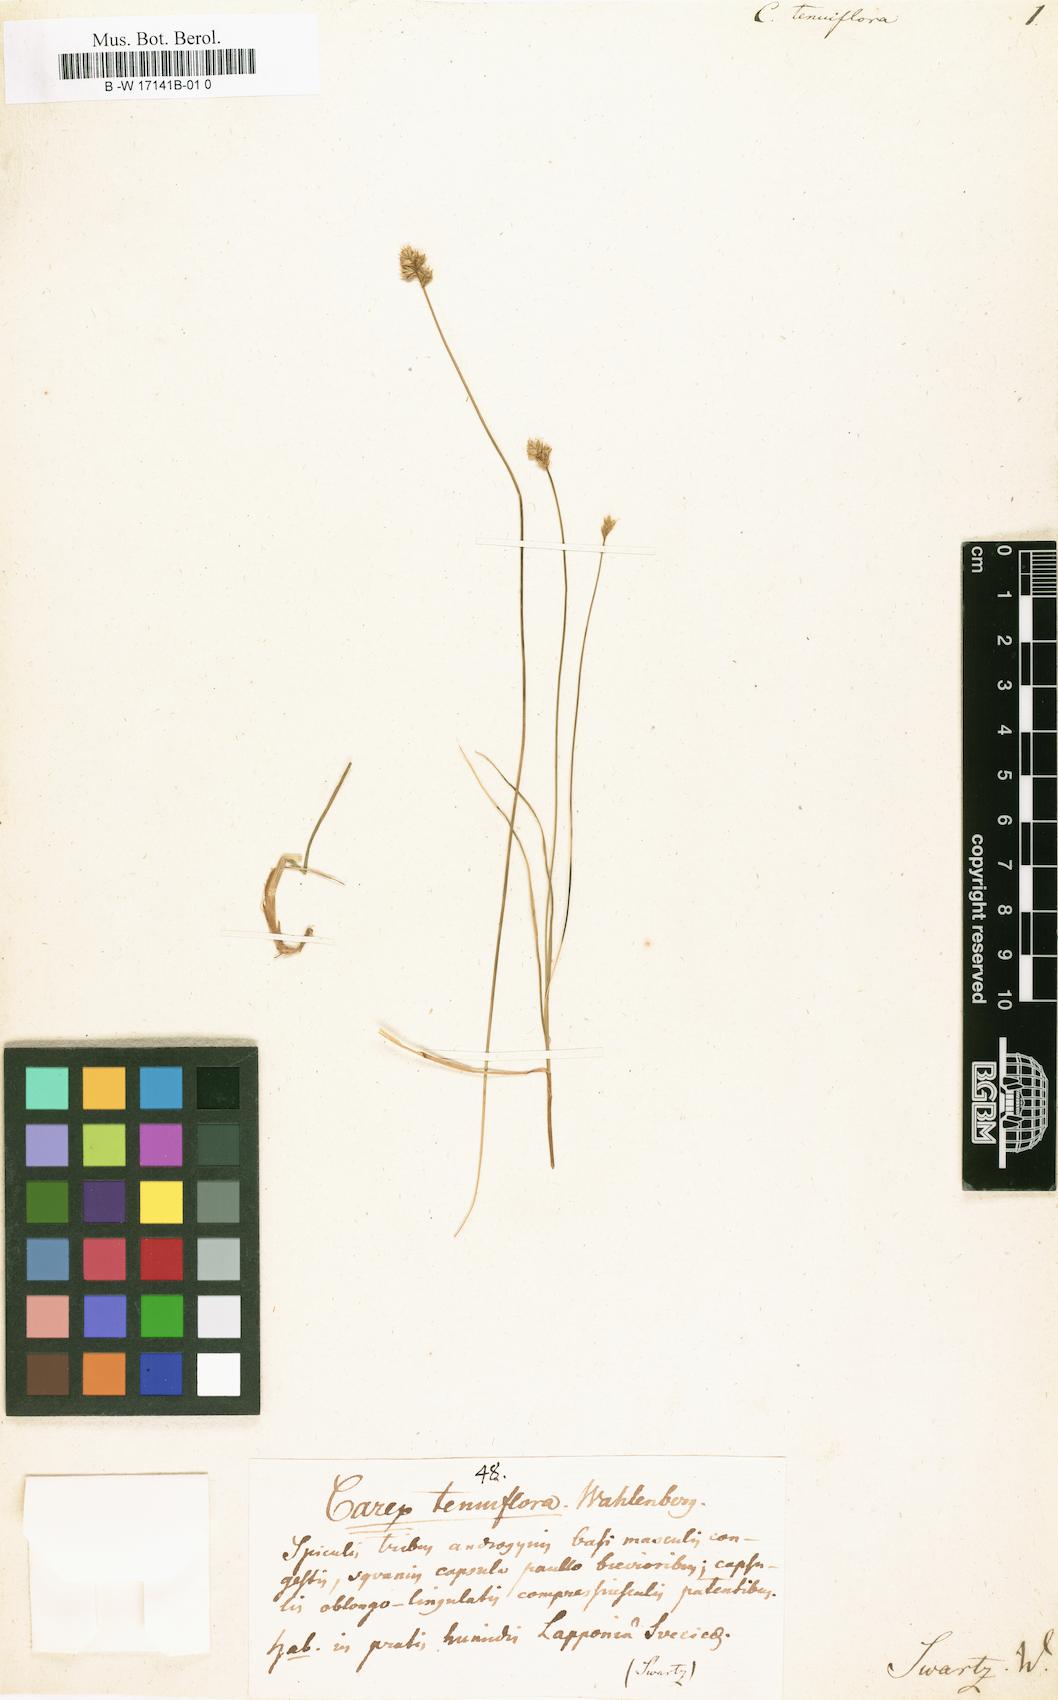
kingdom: Plantae
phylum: Tracheophyta
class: Liliopsida
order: Poales
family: Cyperaceae
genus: Carex
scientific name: Carex tenuiflora
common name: Sparse-flowered sedge
